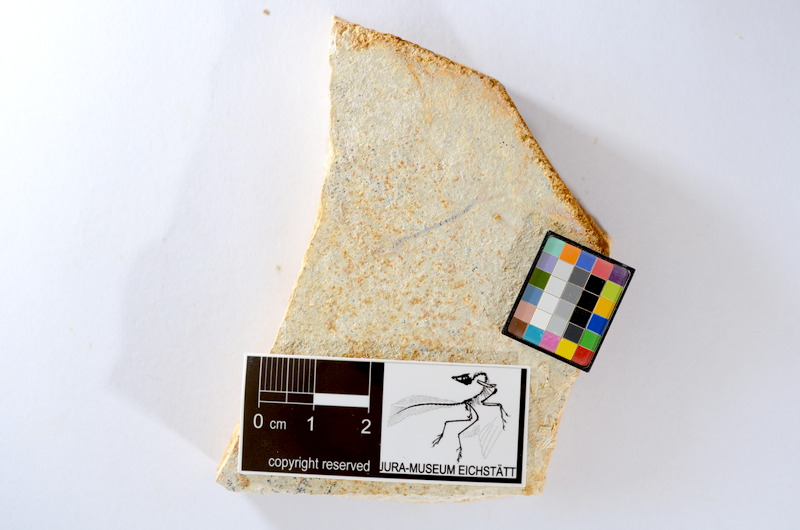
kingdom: Animalia
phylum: Chordata
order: Salmoniformes
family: Orthogonikleithridae
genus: Orthogonikleithrus
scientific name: Orthogonikleithrus hoelli
